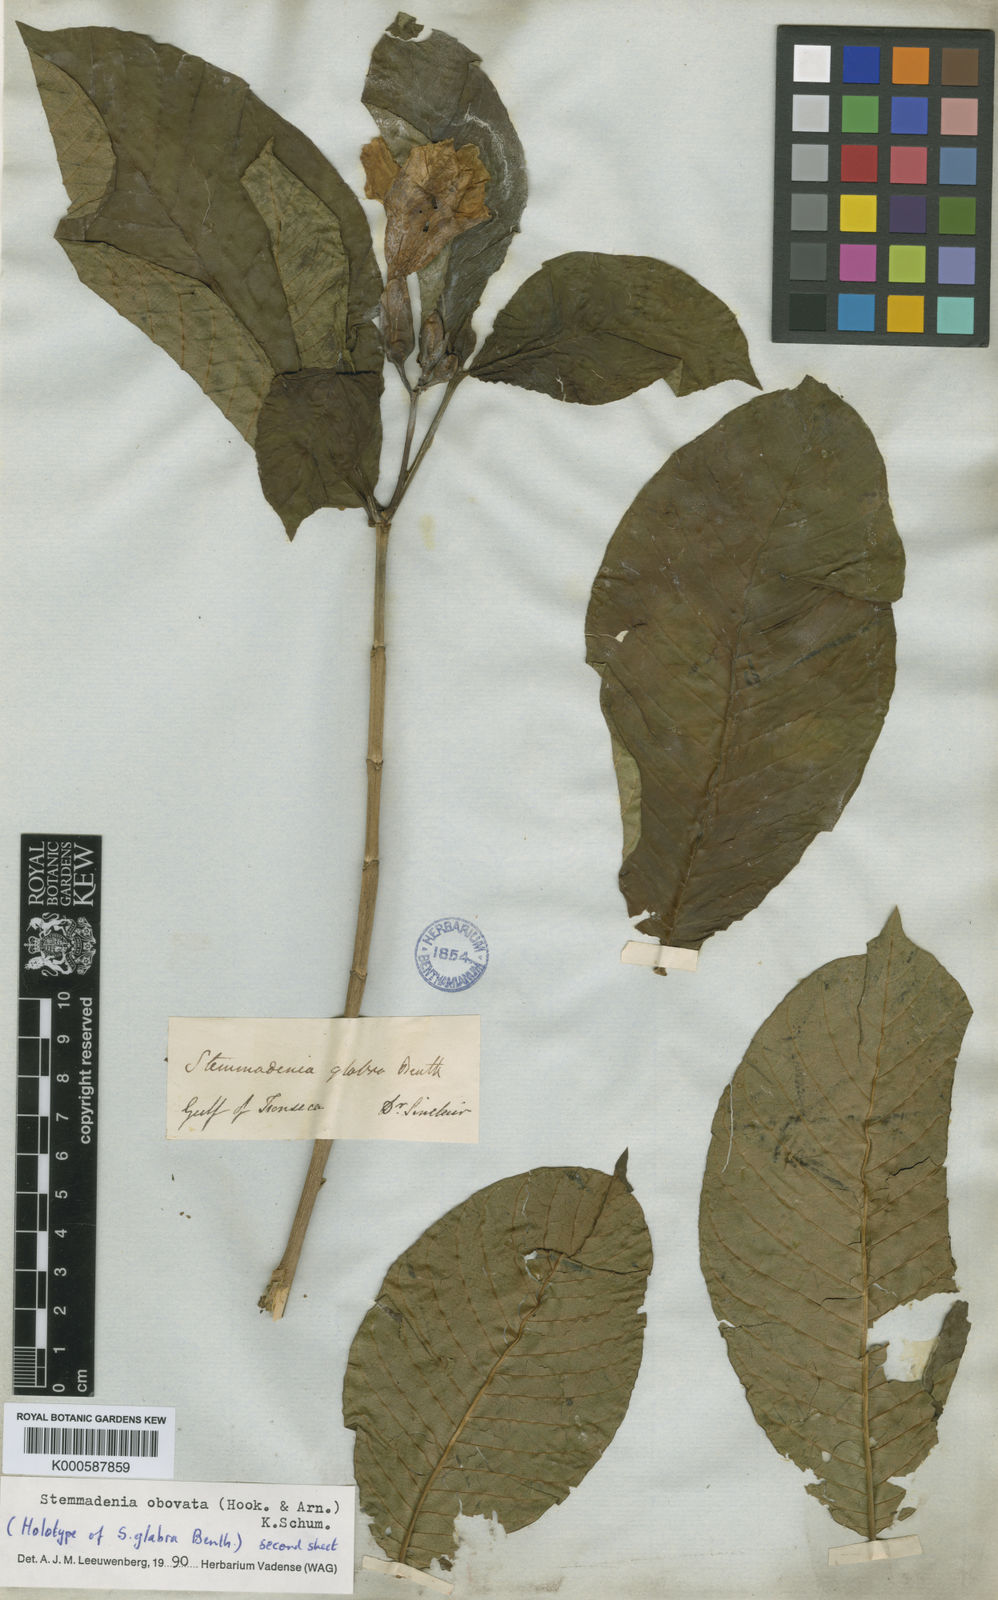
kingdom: Plantae
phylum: Tracheophyta
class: Magnoliopsida
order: Gentianales
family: Apocynaceae
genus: Tabernaemontana
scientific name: Tabernaemontana glabra
